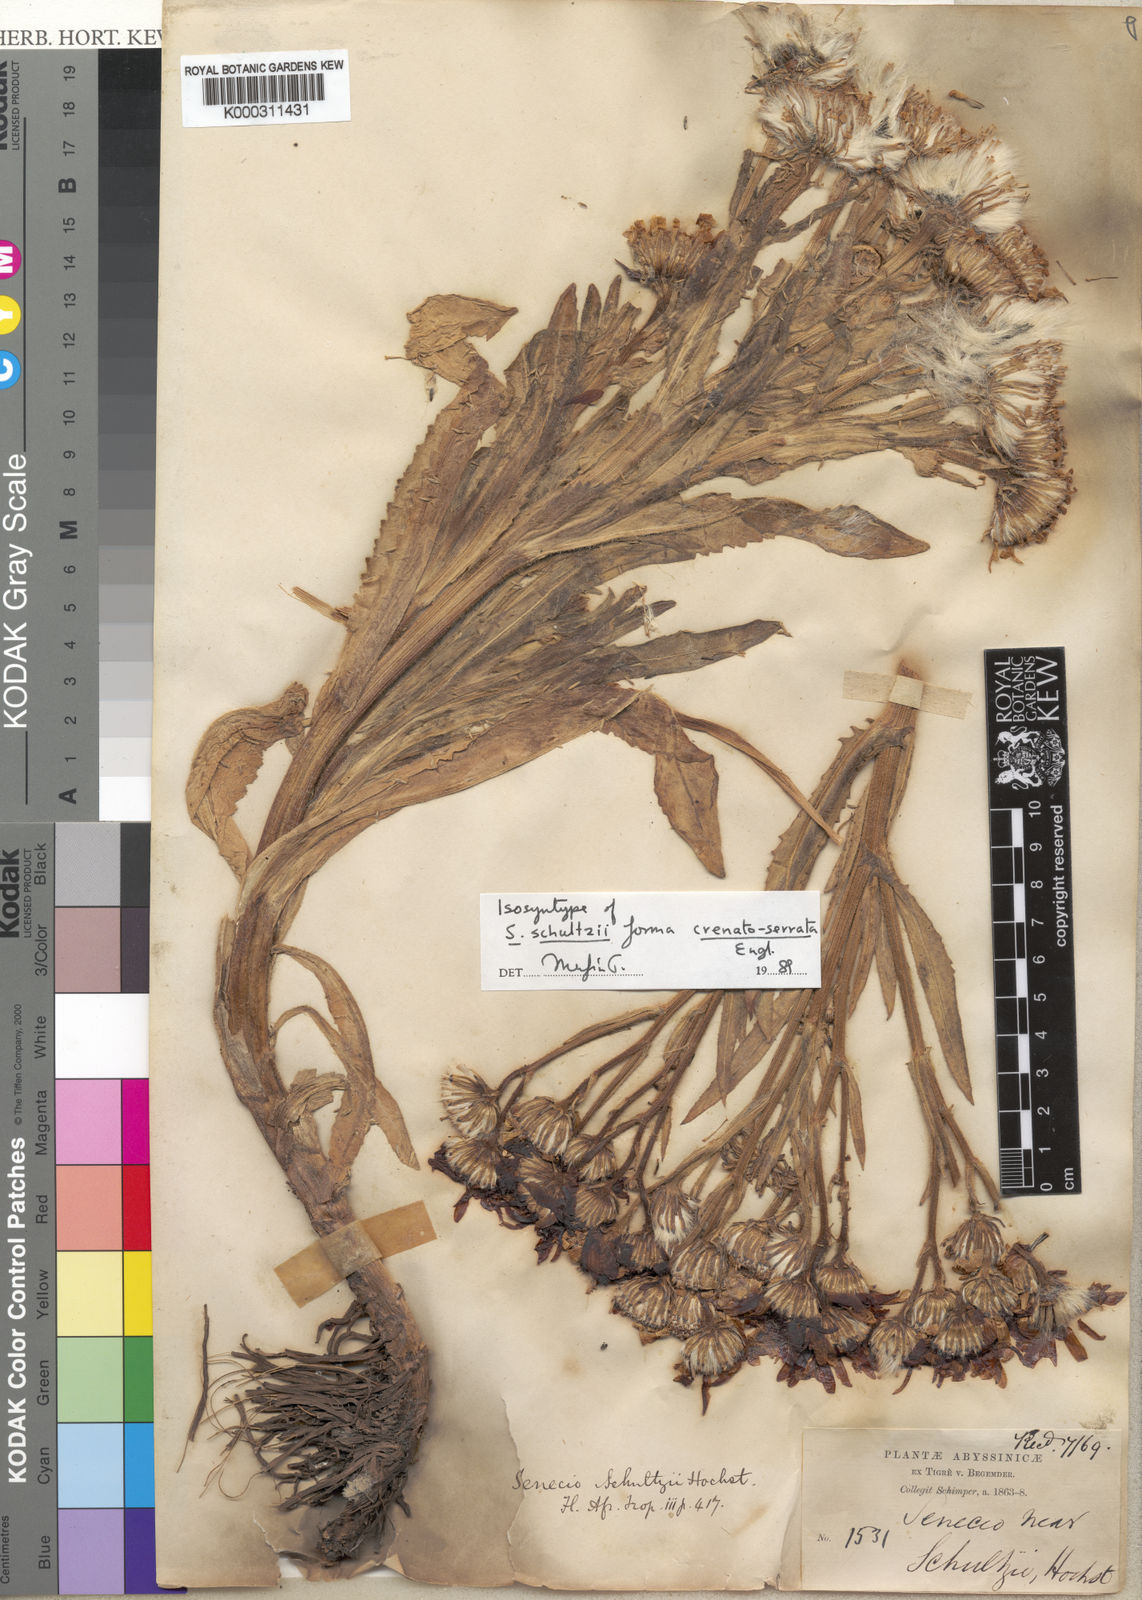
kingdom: Plantae
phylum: Tracheophyta
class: Magnoliopsida
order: Asterales
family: Asteraceae
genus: Senecio
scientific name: Senecio schultzii
